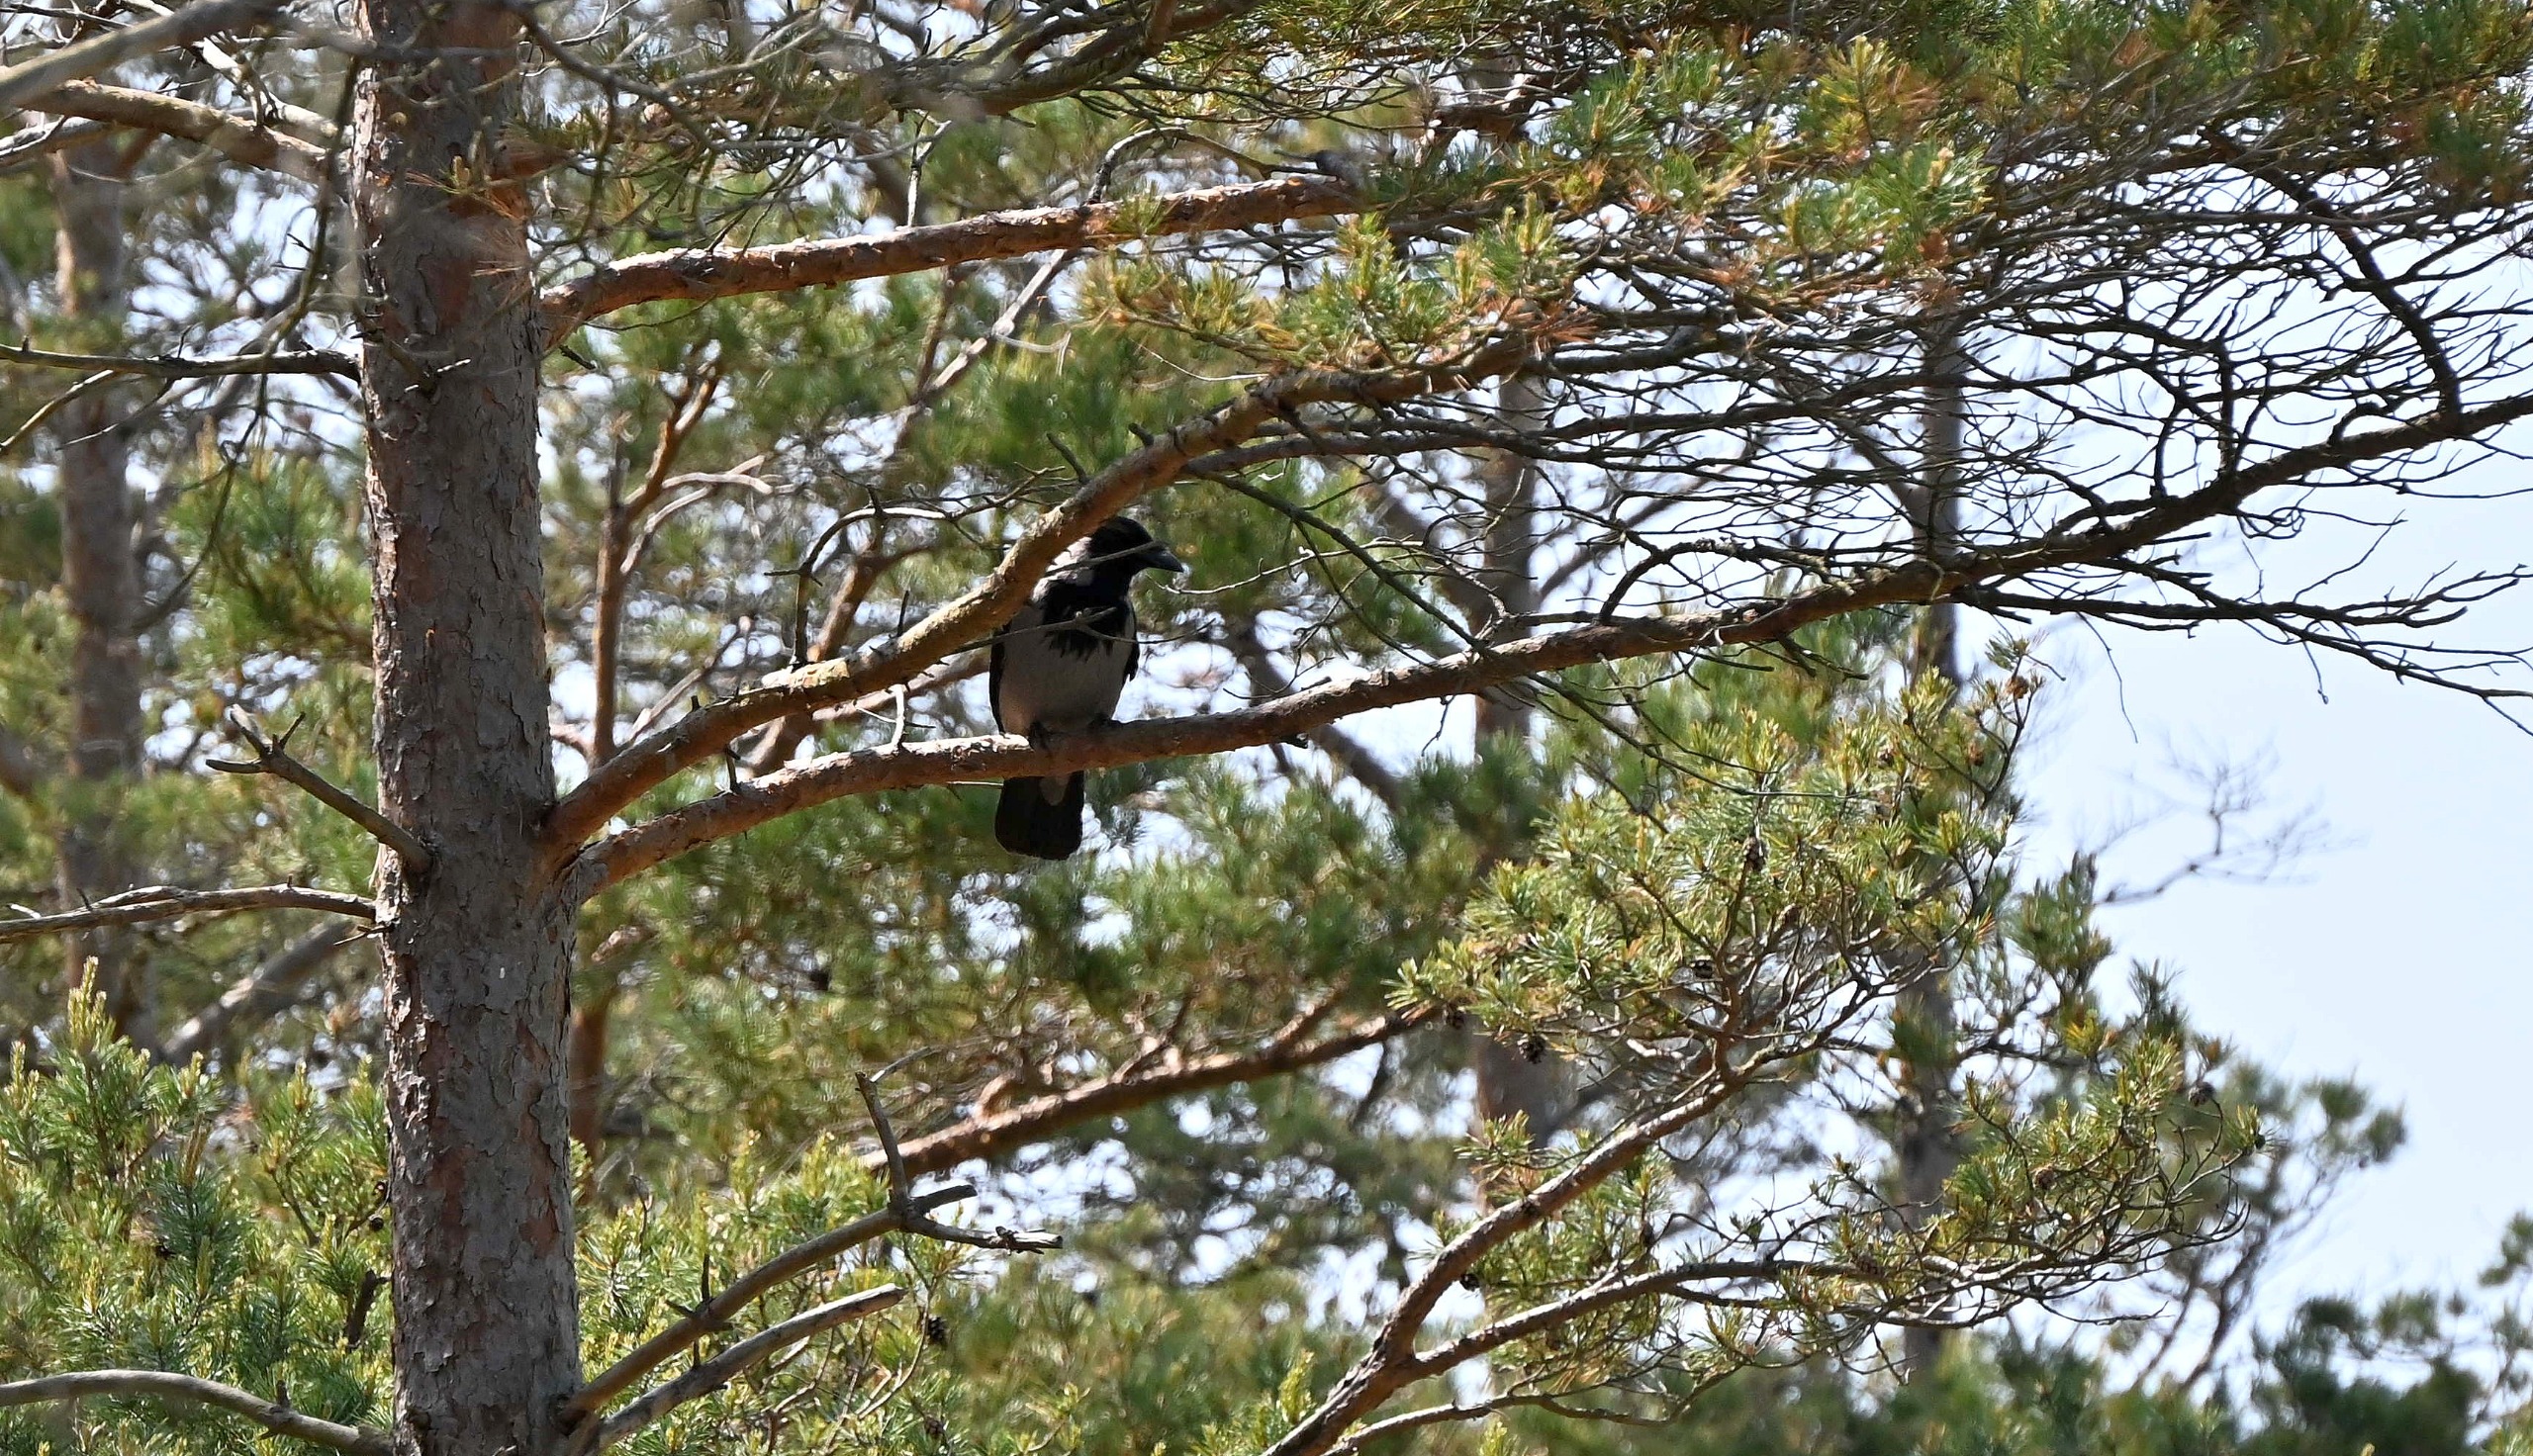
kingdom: Animalia
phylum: Chordata
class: Aves
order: Passeriformes
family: Corvidae
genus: Corvus
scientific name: Corvus cornix
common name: Gråkrage
